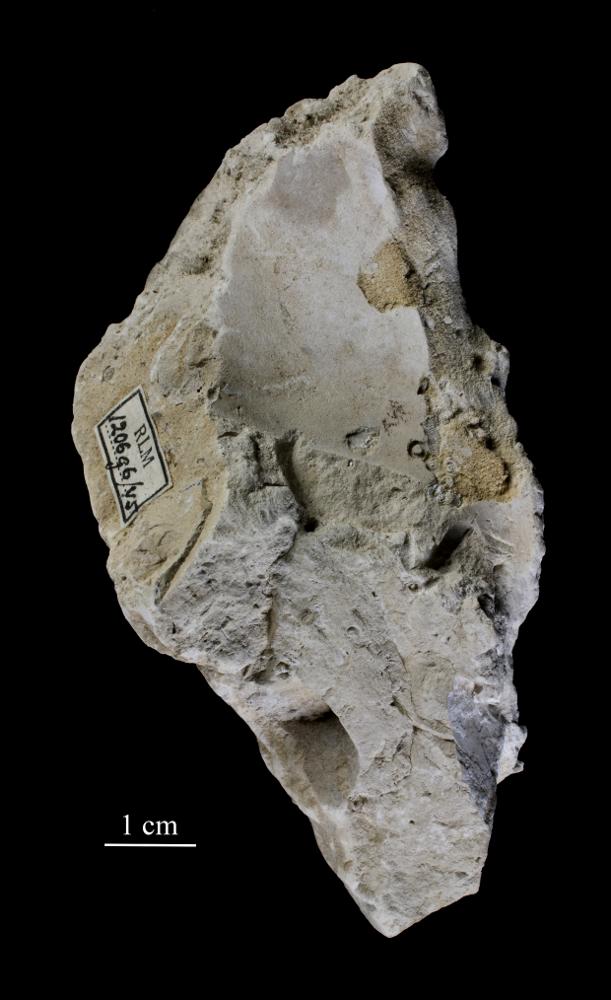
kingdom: Animalia
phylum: Arthropoda
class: Trilobita
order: Asaphida
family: Asaphidae
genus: Isotelus
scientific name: Isotelus
